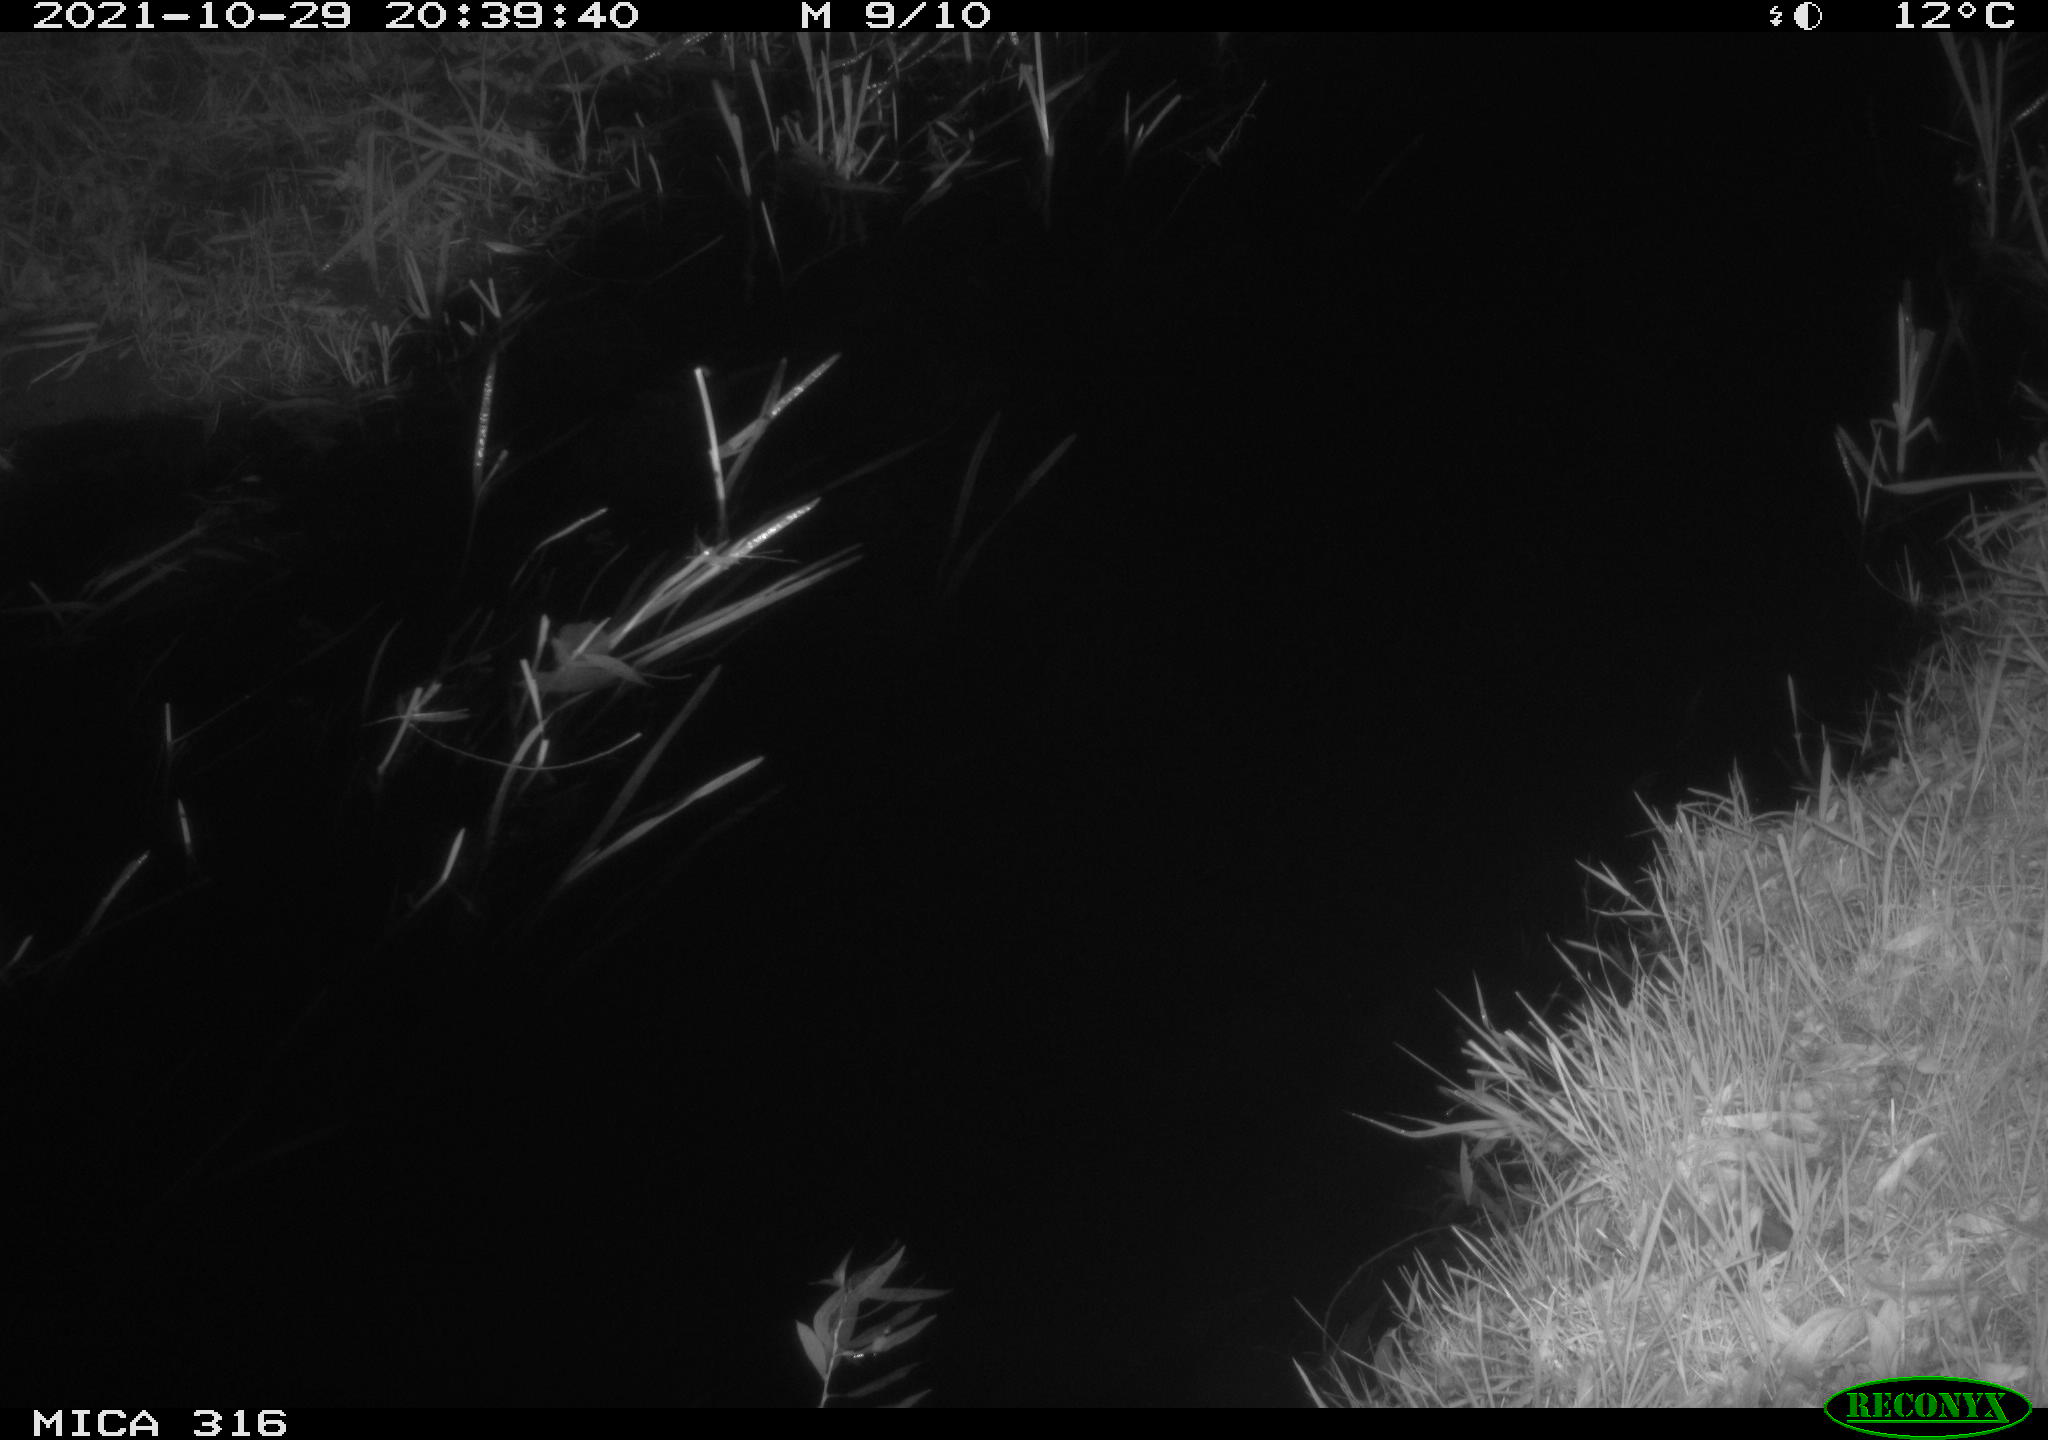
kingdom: Animalia
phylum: Chordata
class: Mammalia
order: Rodentia
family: Muridae
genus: Rattus
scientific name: Rattus norvegicus
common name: Brown rat
